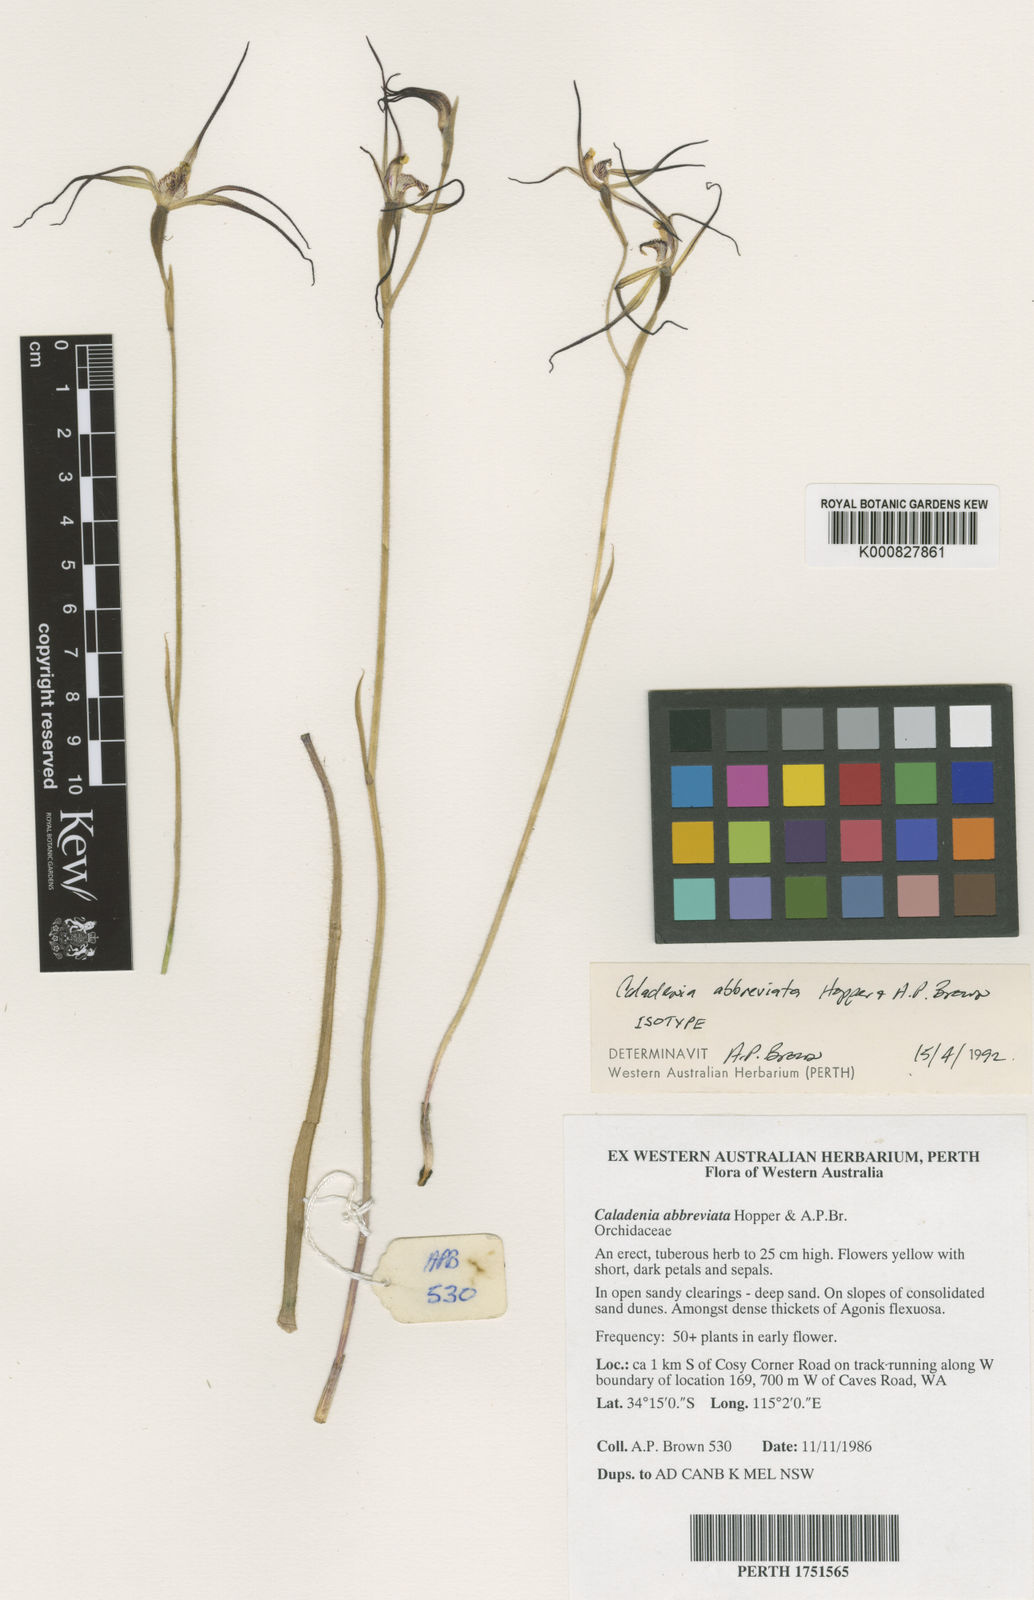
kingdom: Plantae
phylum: Tracheophyta
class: Liliopsida
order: Asparagales
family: Orchidaceae
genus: Caladenia
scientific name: Caladenia abbreviata
